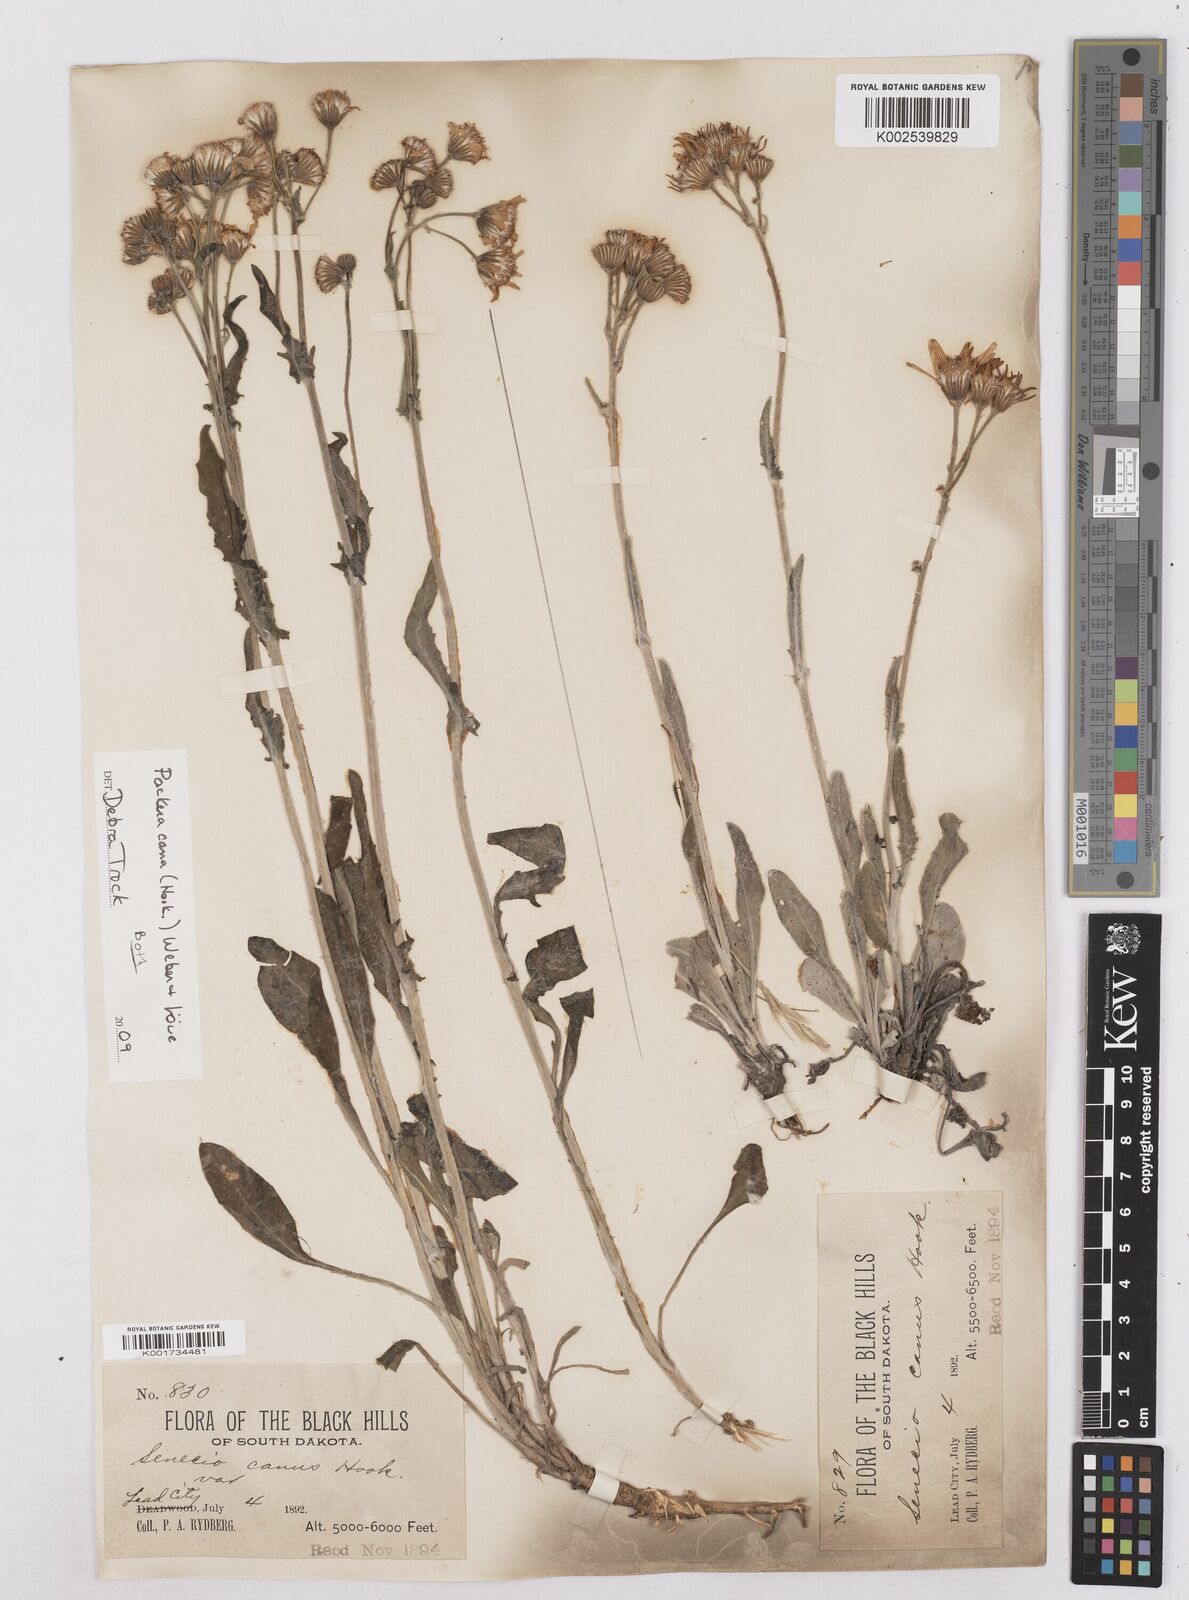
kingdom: Plantae
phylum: Tracheophyta
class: Magnoliopsida
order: Asterales
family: Asteraceae
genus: Packera
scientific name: Packera cana
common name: Woolly groundsel
